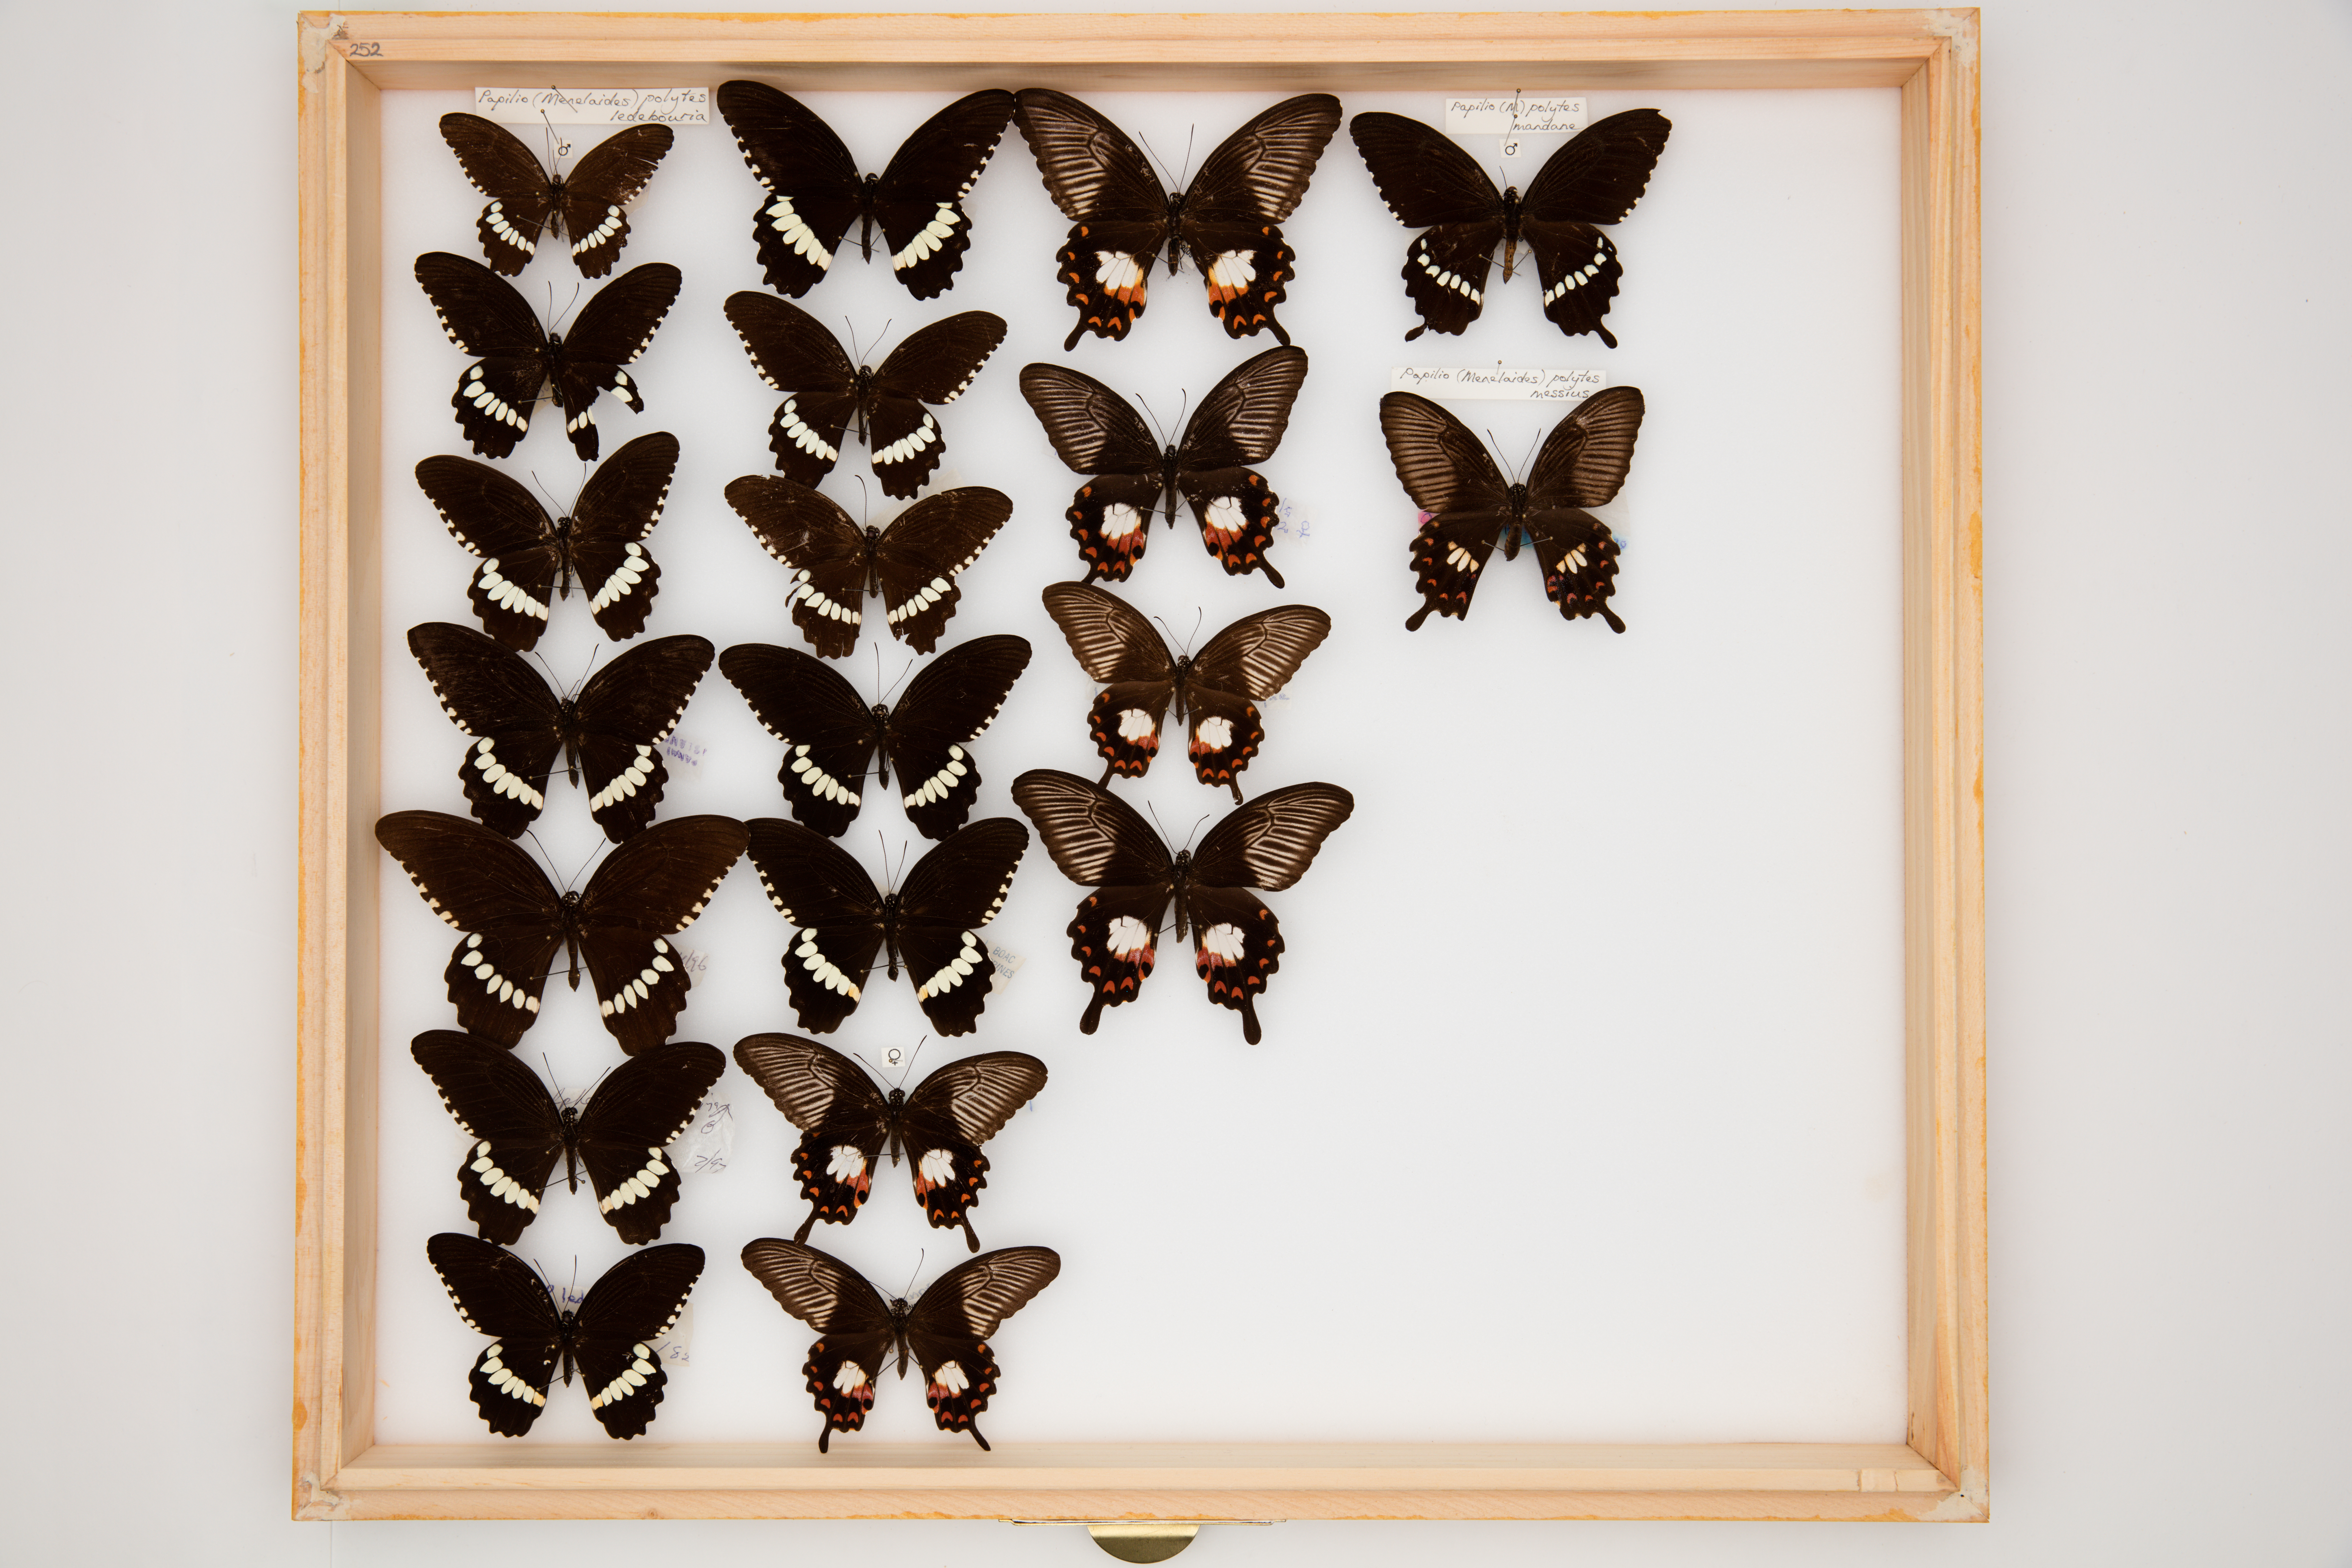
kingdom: Animalia
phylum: Arthropoda
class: Insecta
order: Lepidoptera
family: Papilionidae
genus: Papilio
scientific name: Papilio polytes
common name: Common mormon
